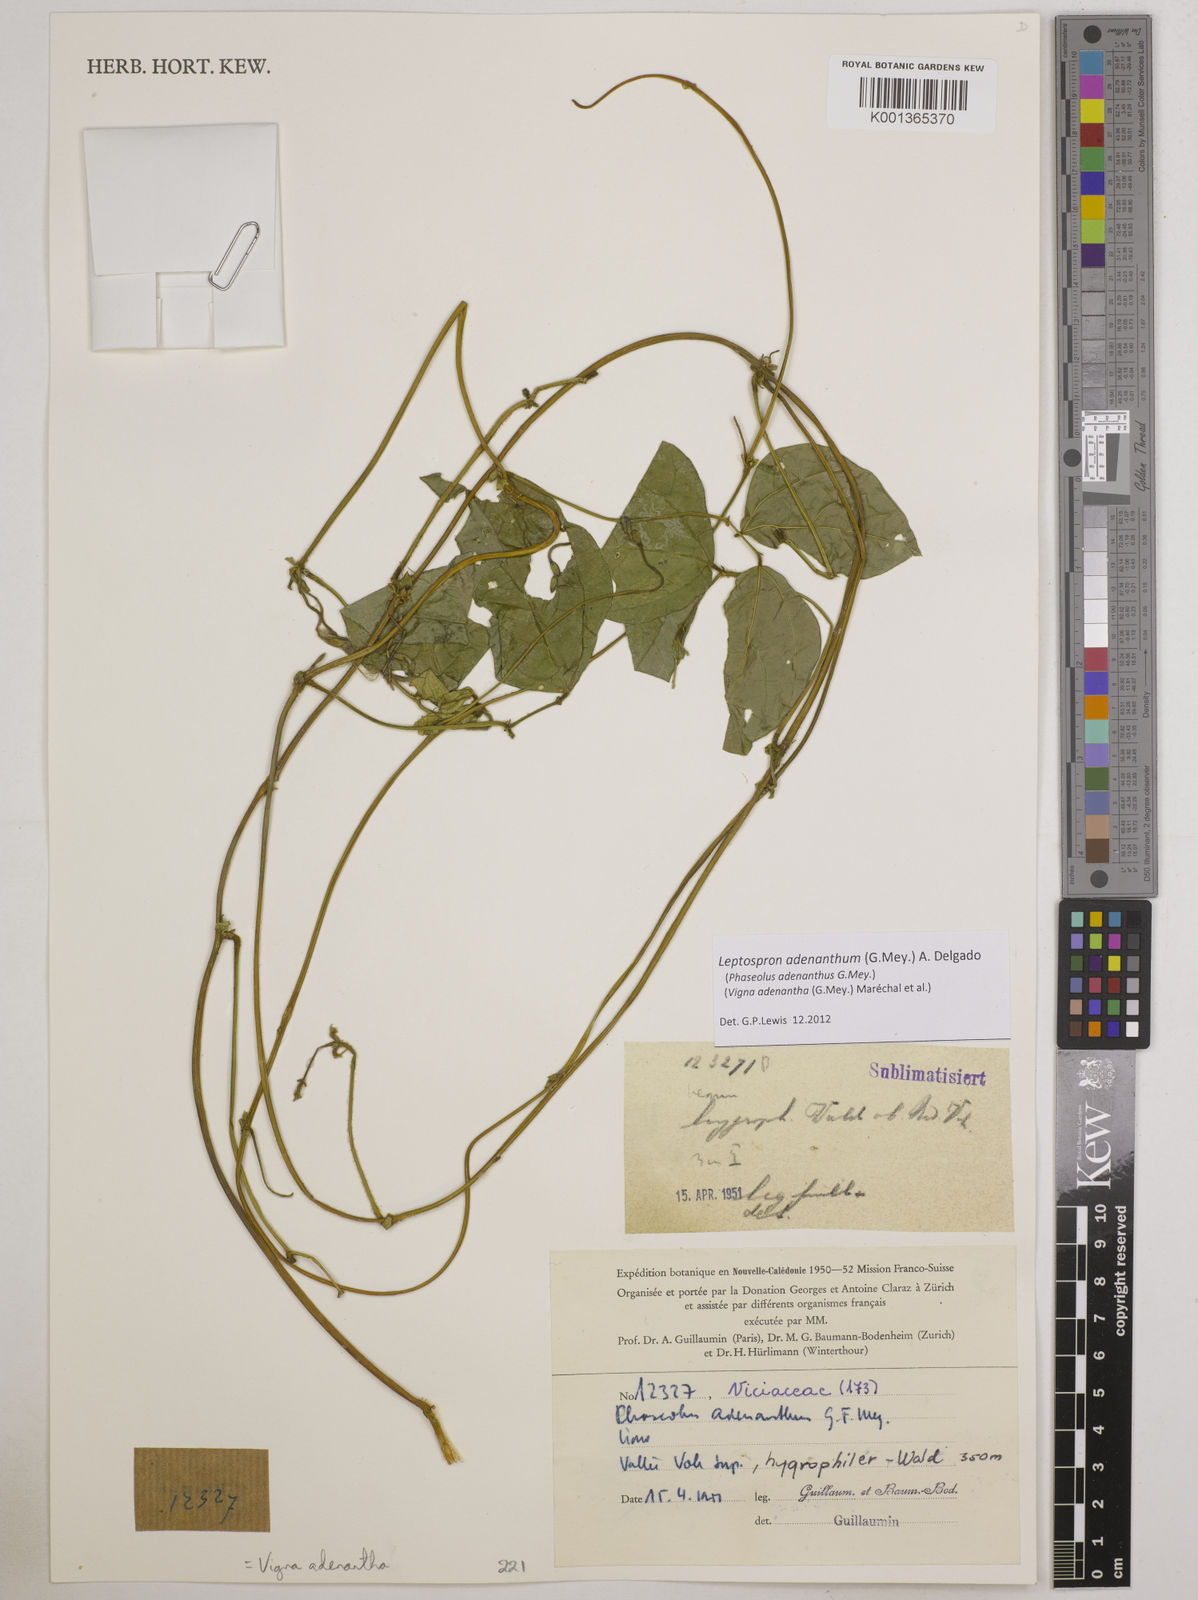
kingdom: Plantae
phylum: Tracheophyta
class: Magnoliopsida
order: Fabales
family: Fabaceae
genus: Leptospron
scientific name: Leptospron adenanthum
